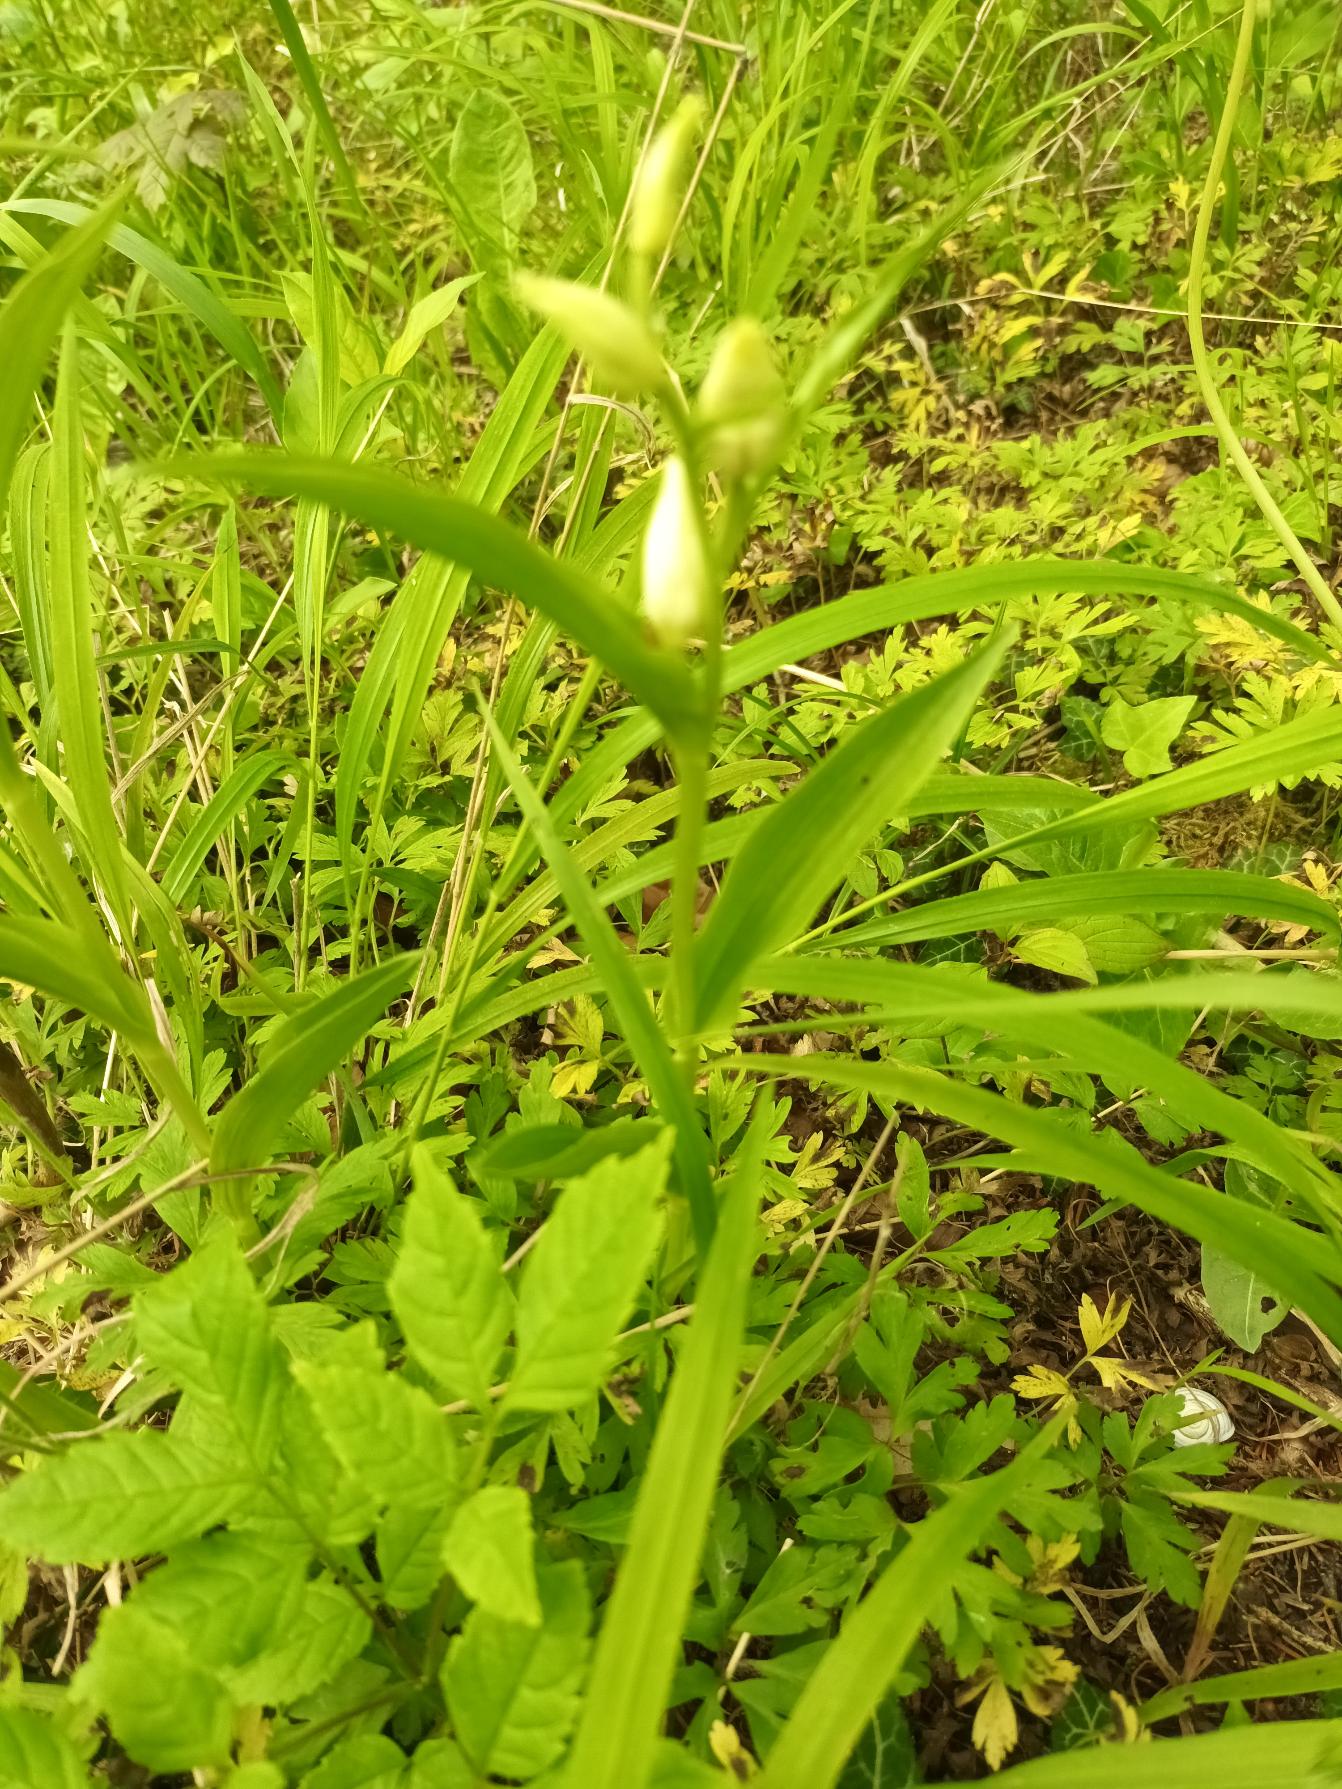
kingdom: Plantae
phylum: Tracheophyta
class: Liliopsida
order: Asparagales
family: Orchidaceae
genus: Cephalanthera
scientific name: Cephalanthera damasonium
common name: Hvidgul skovlilje
